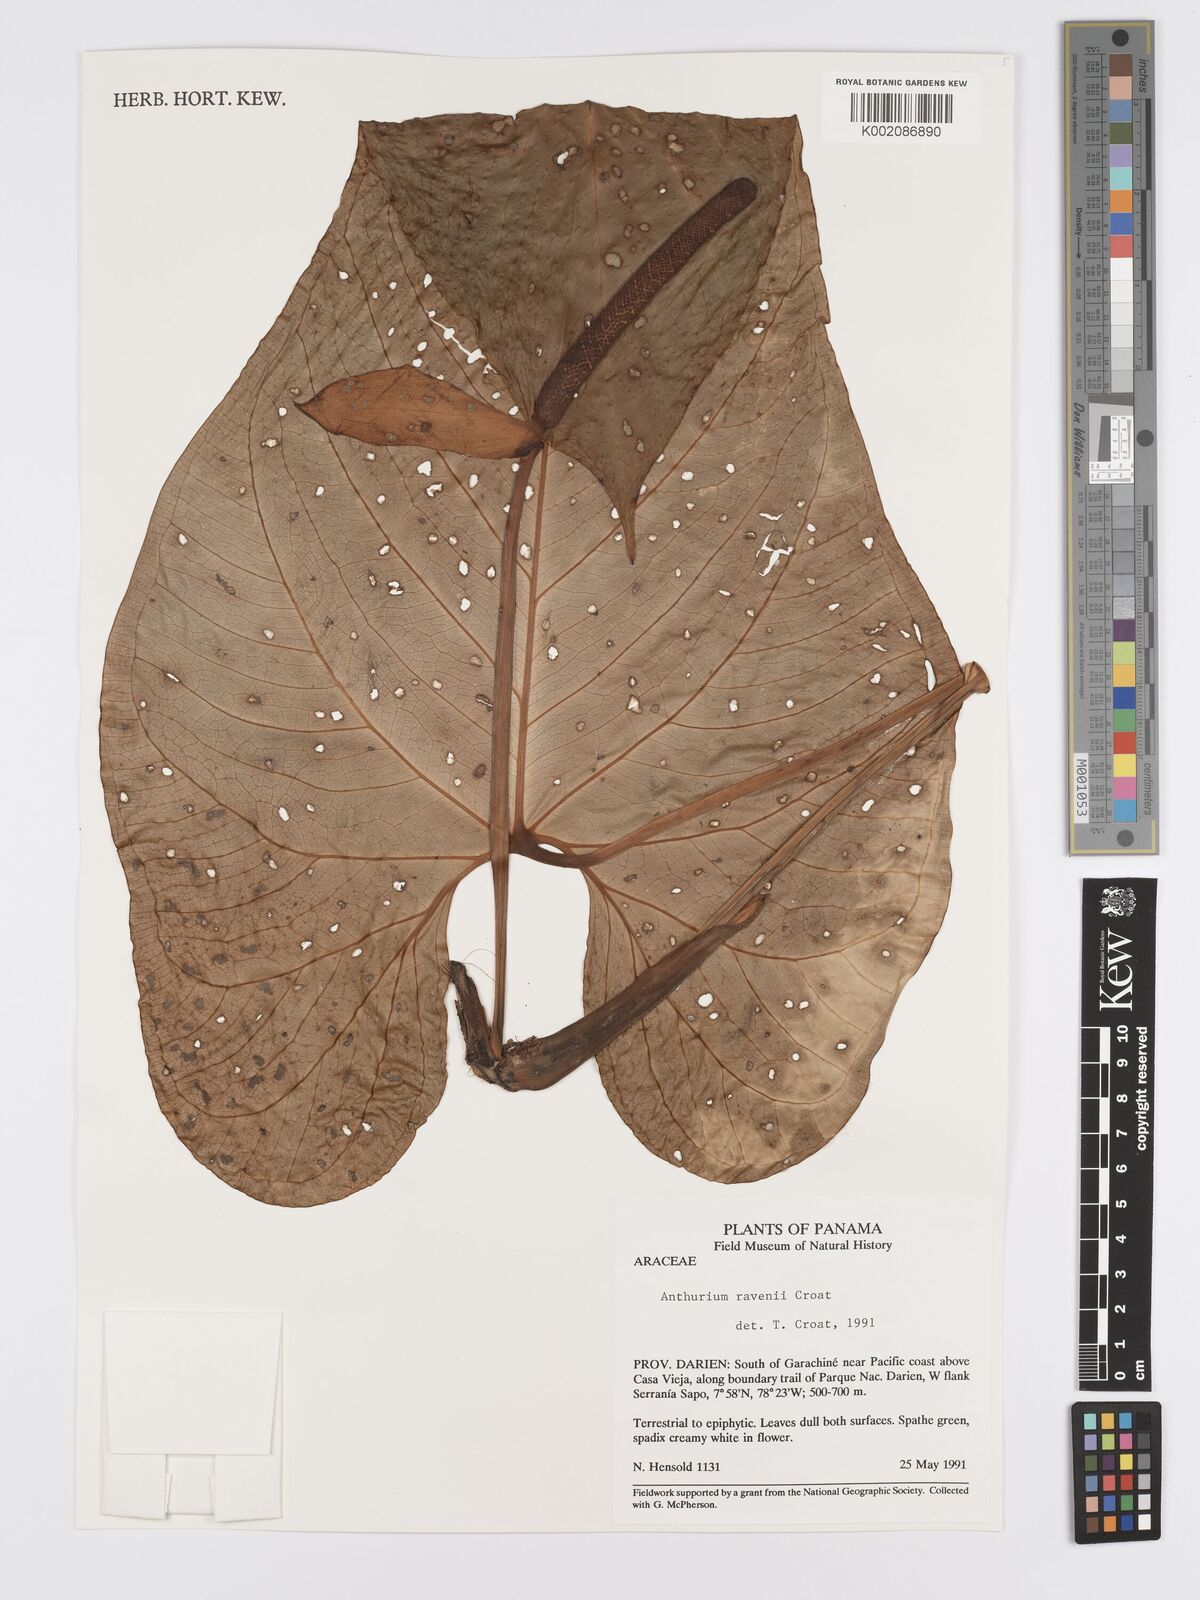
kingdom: Plantae
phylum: Tracheophyta
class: Liliopsida
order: Alismatales
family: Araceae
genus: Anthurium
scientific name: Anthurium ravenii
